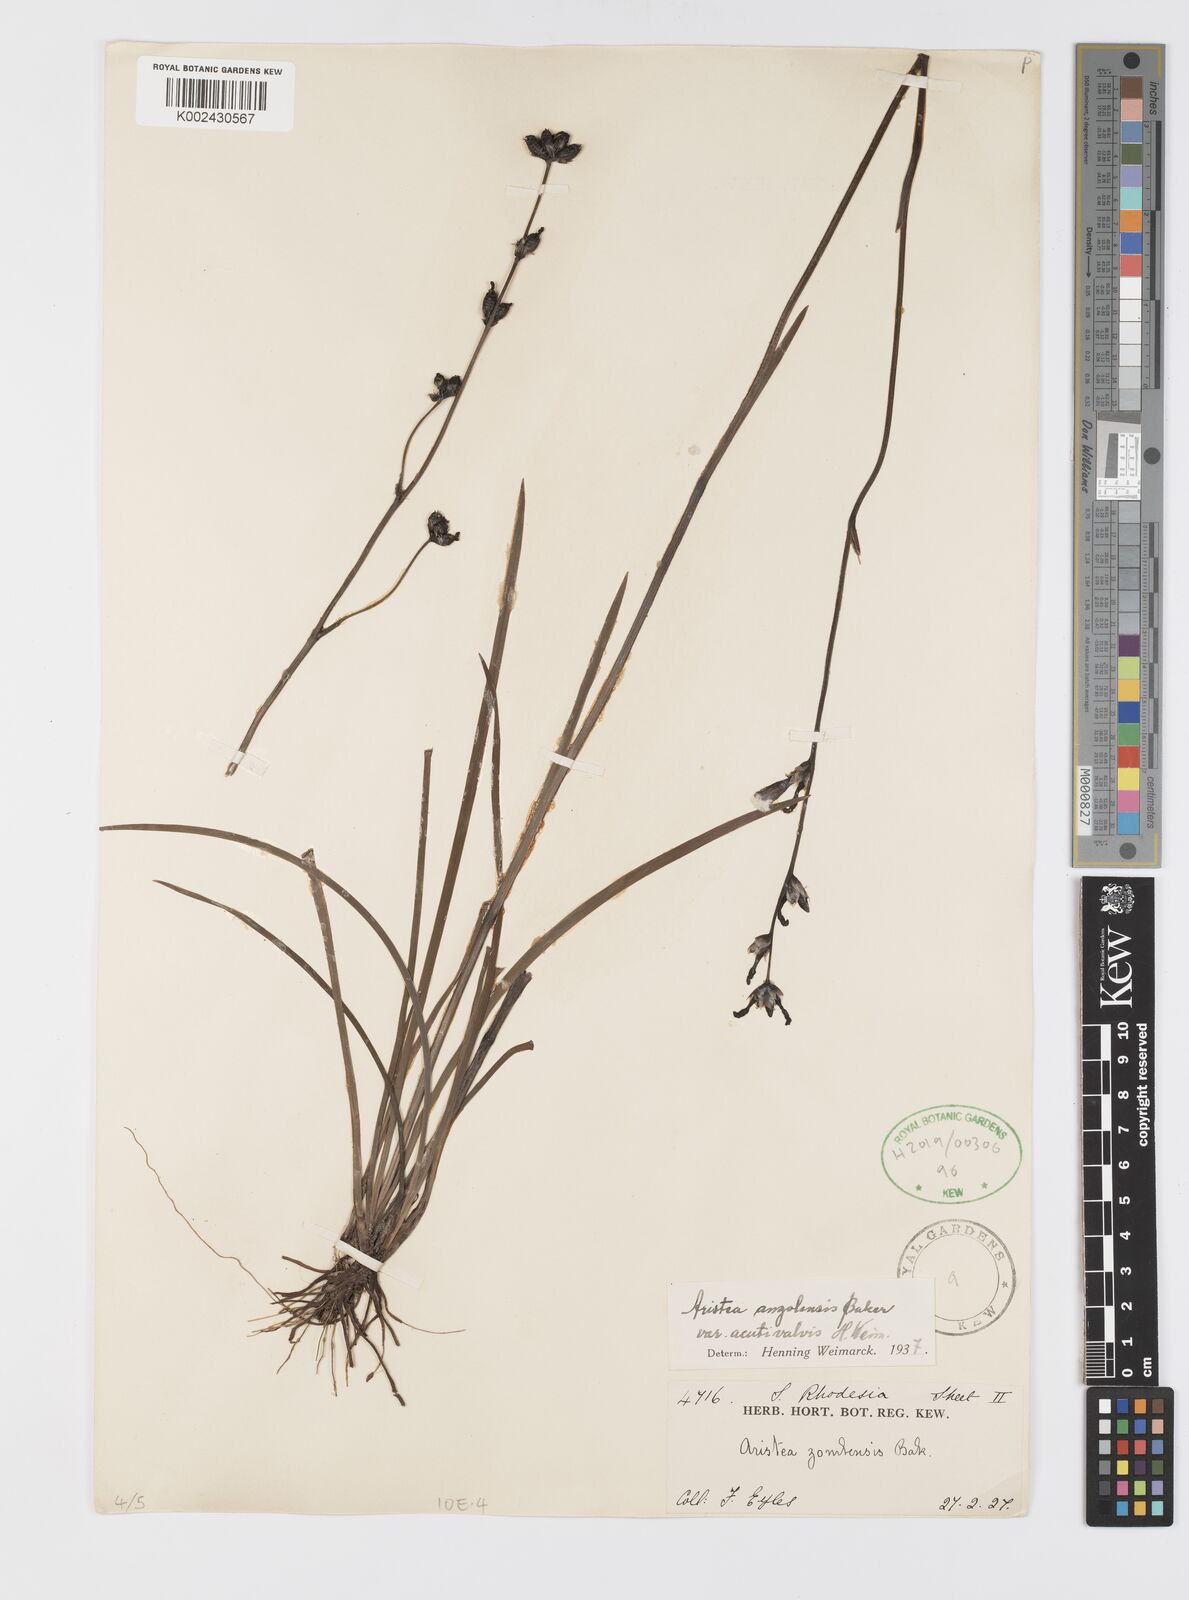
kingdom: Plantae
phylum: Tracheophyta
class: Liliopsida
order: Asparagales
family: Iridaceae
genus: Aristea
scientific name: Aristea angolensis
